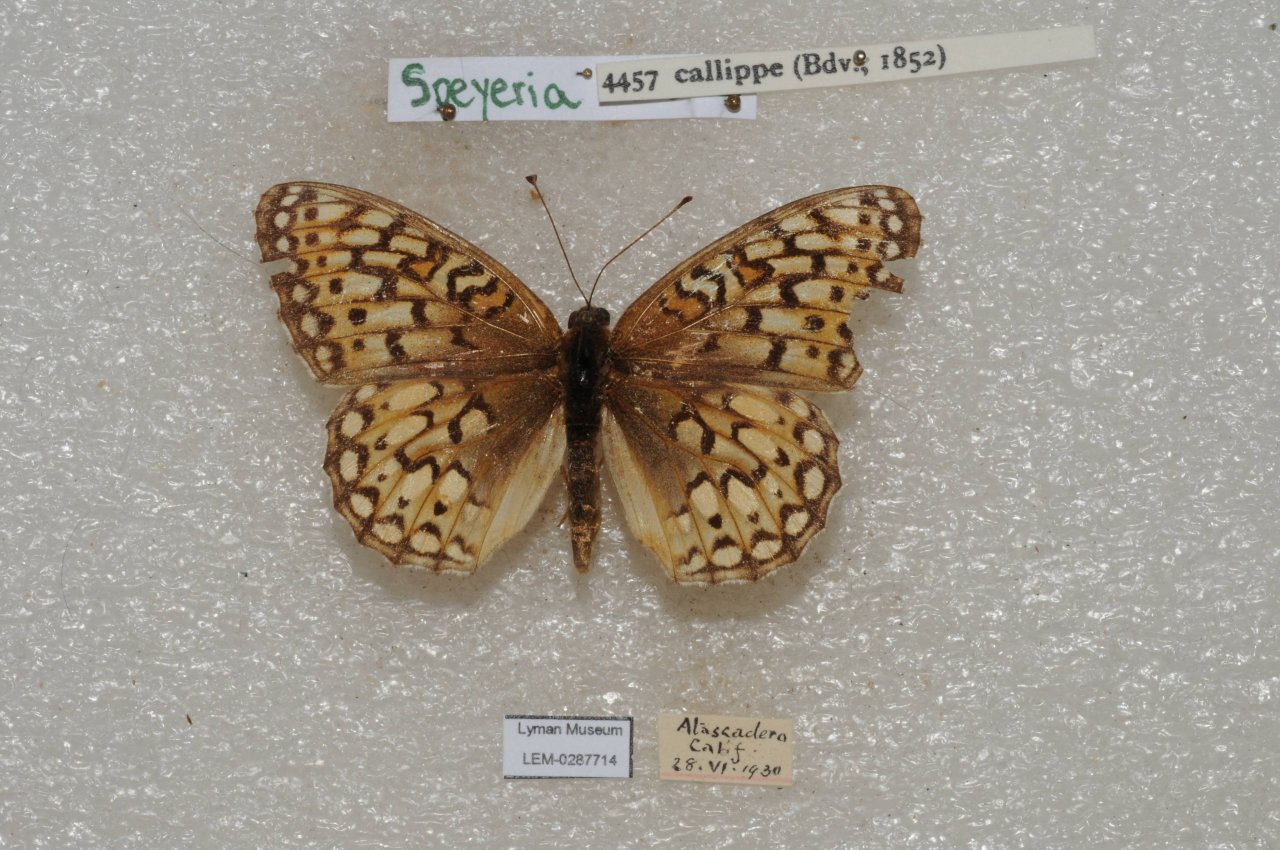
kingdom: Animalia
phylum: Arthropoda
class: Insecta
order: Lepidoptera
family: Nymphalidae
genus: Speyeria
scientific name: Speyeria callippe
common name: Callippe Fritillary
